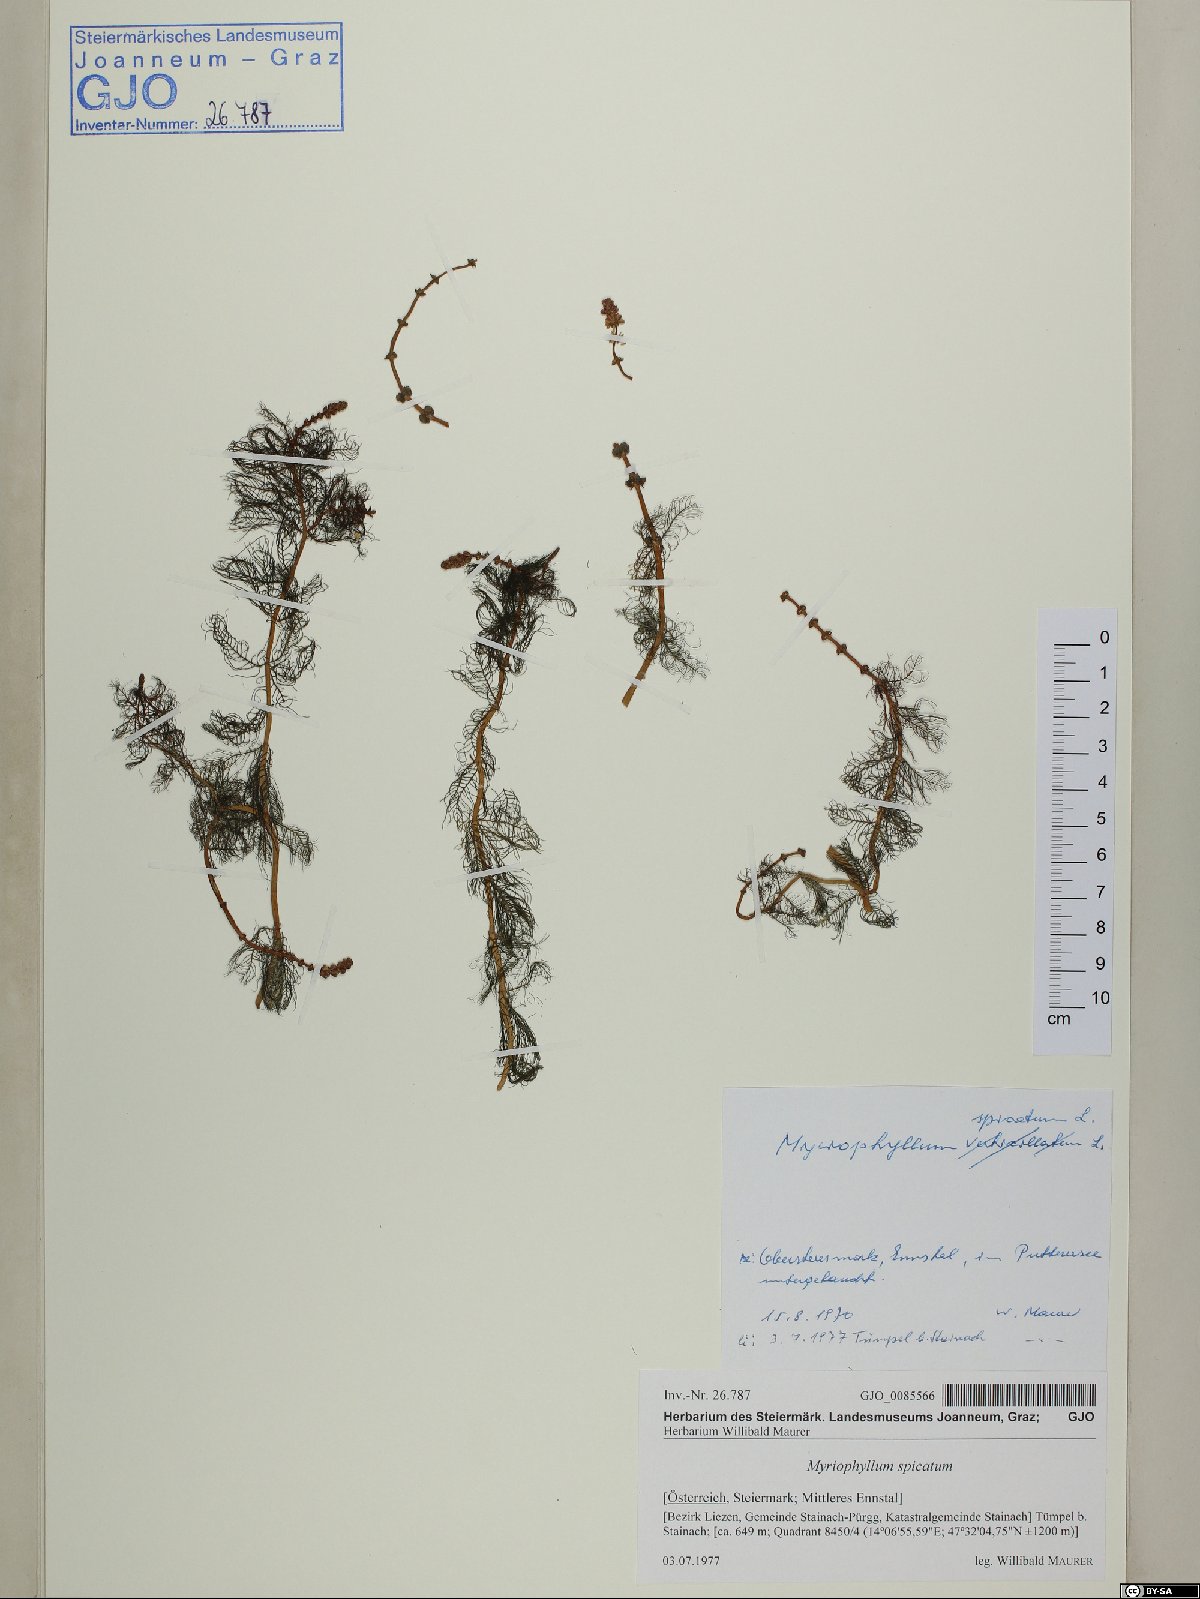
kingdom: Plantae
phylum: Tracheophyta
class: Magnoliopsida
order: Saxifragales
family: Haloragaceae
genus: Myriophyllum
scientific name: Myriophyllum spicatum
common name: Spiked water-milfoil
